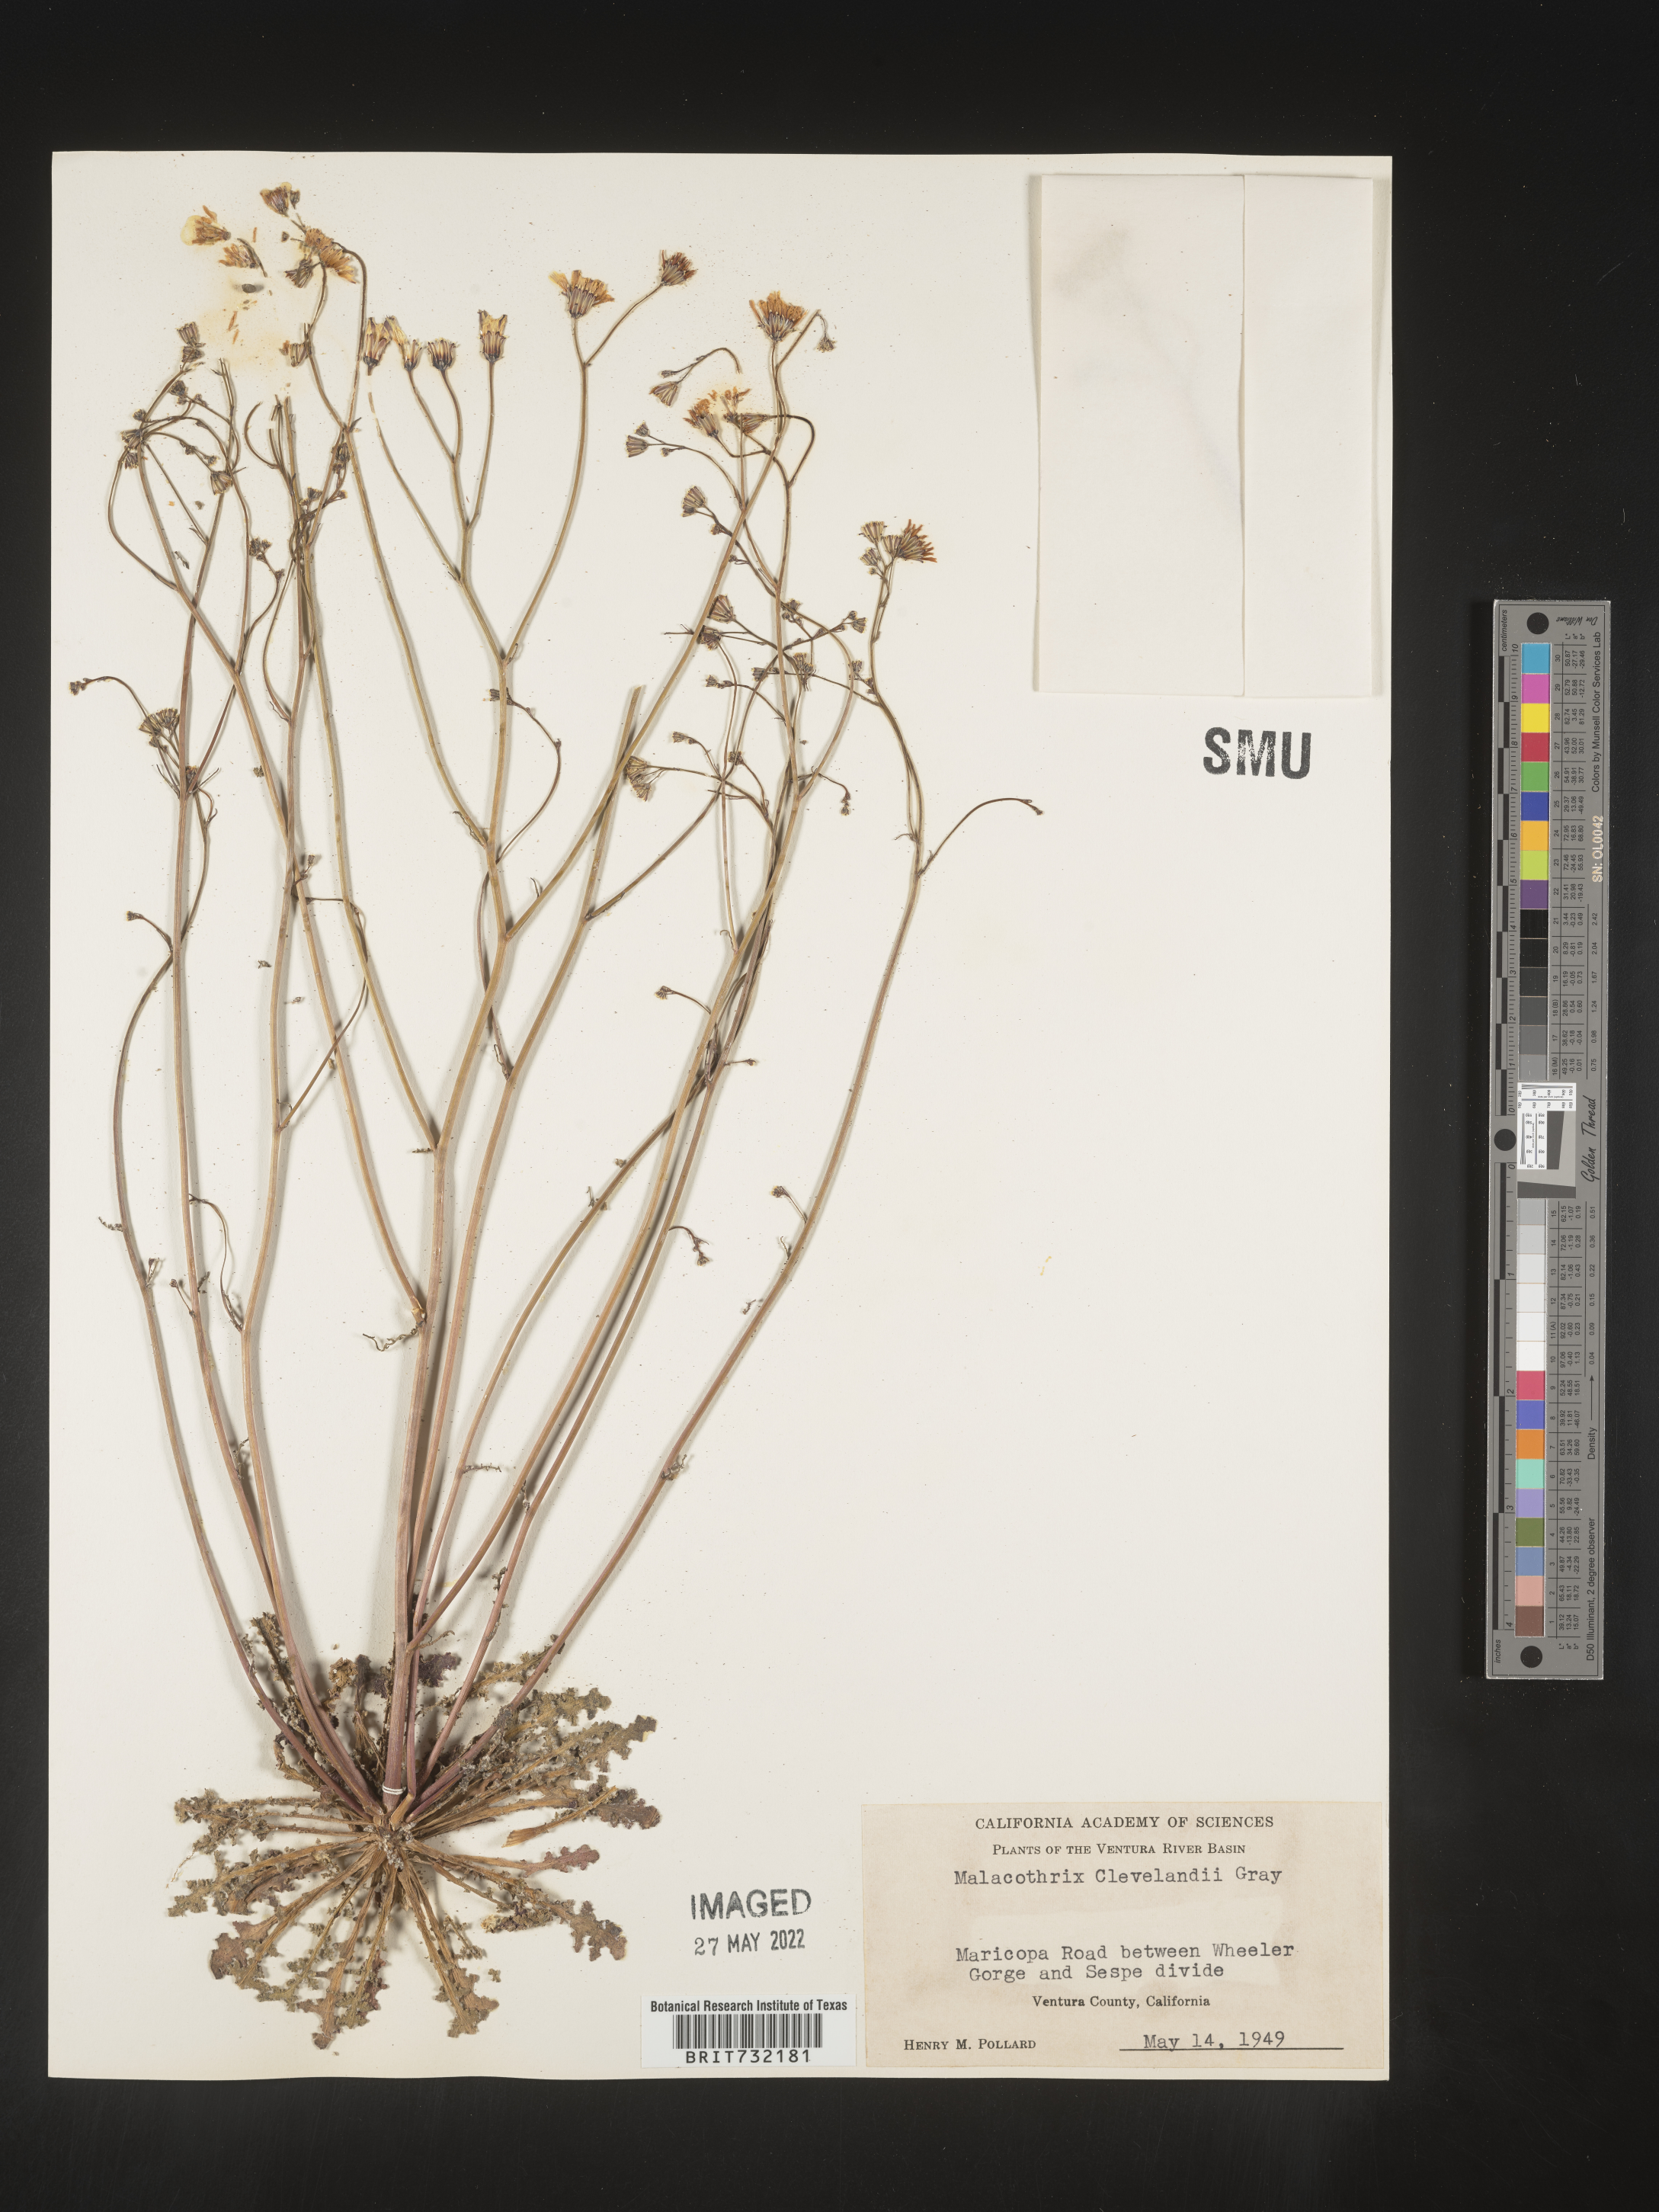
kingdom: Plantae
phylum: Tracheophyta
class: Magnoliopsida
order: Asterales
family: Asteraceae
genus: Malacothrix
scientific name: Malacothrix
